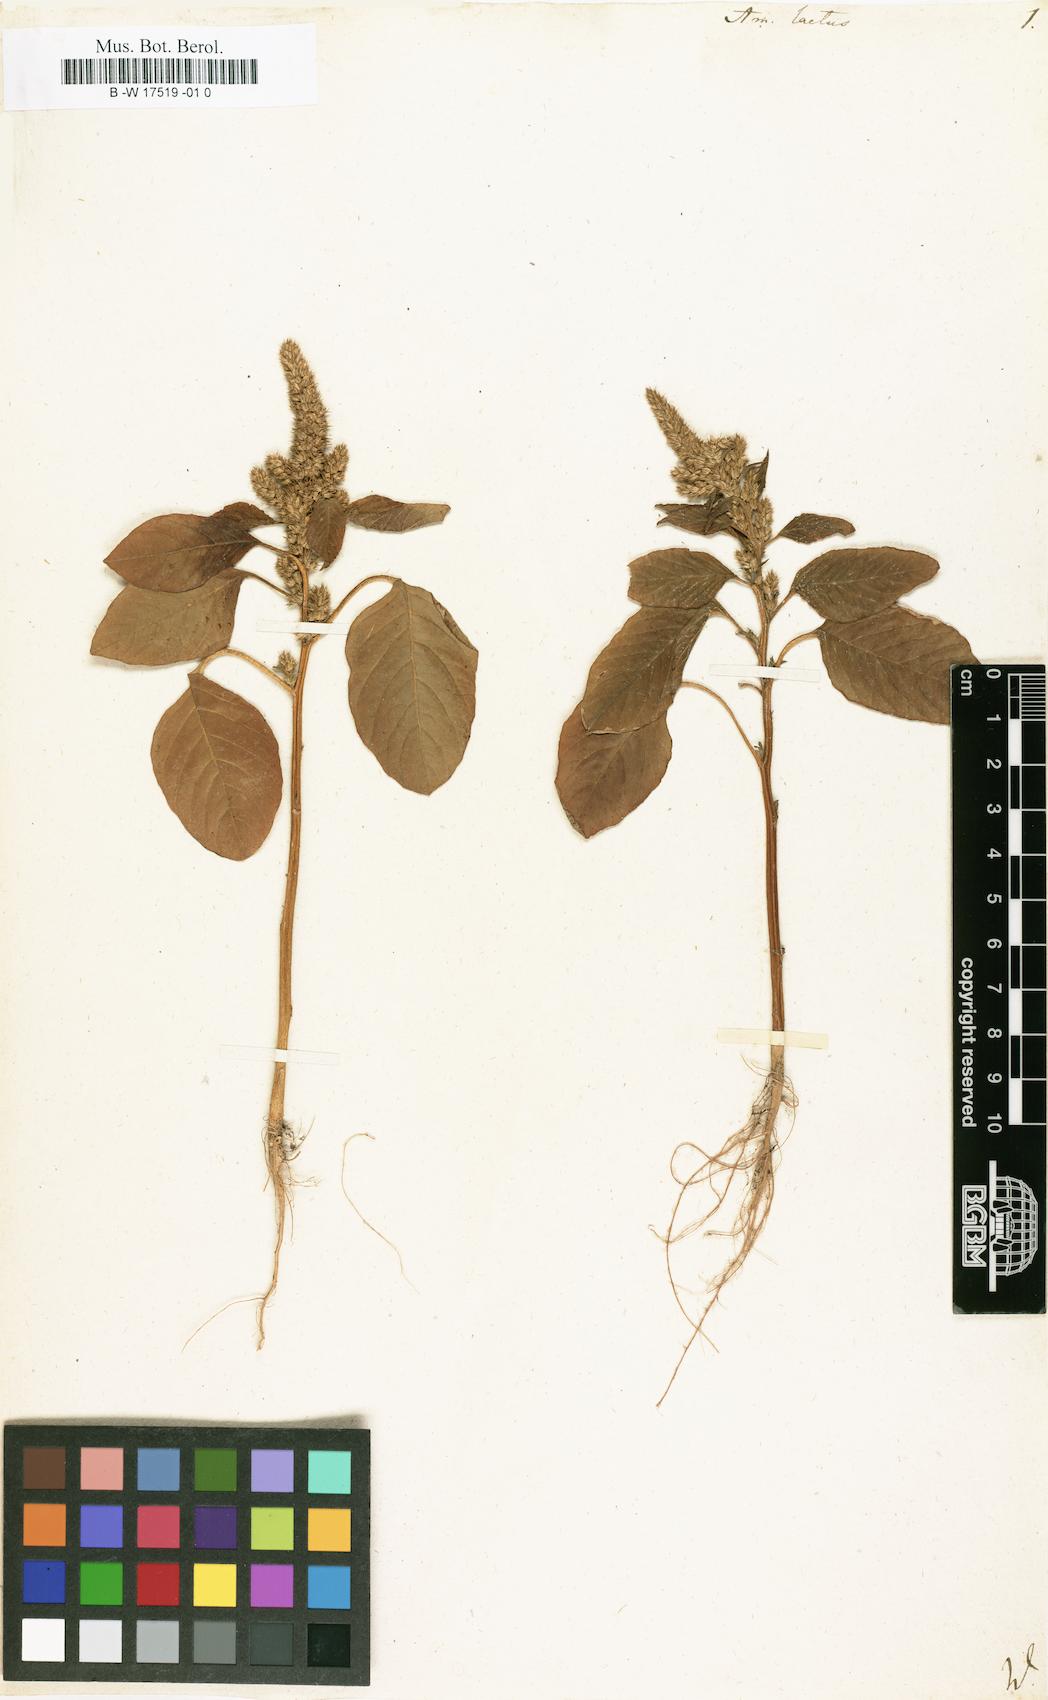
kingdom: Plantae
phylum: Tracheophyta
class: Magnoliopsida
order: Caryophyllales
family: Amaranthaceae
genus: Amaranthus
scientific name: Amaranthus hybridus
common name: Green amaranth
